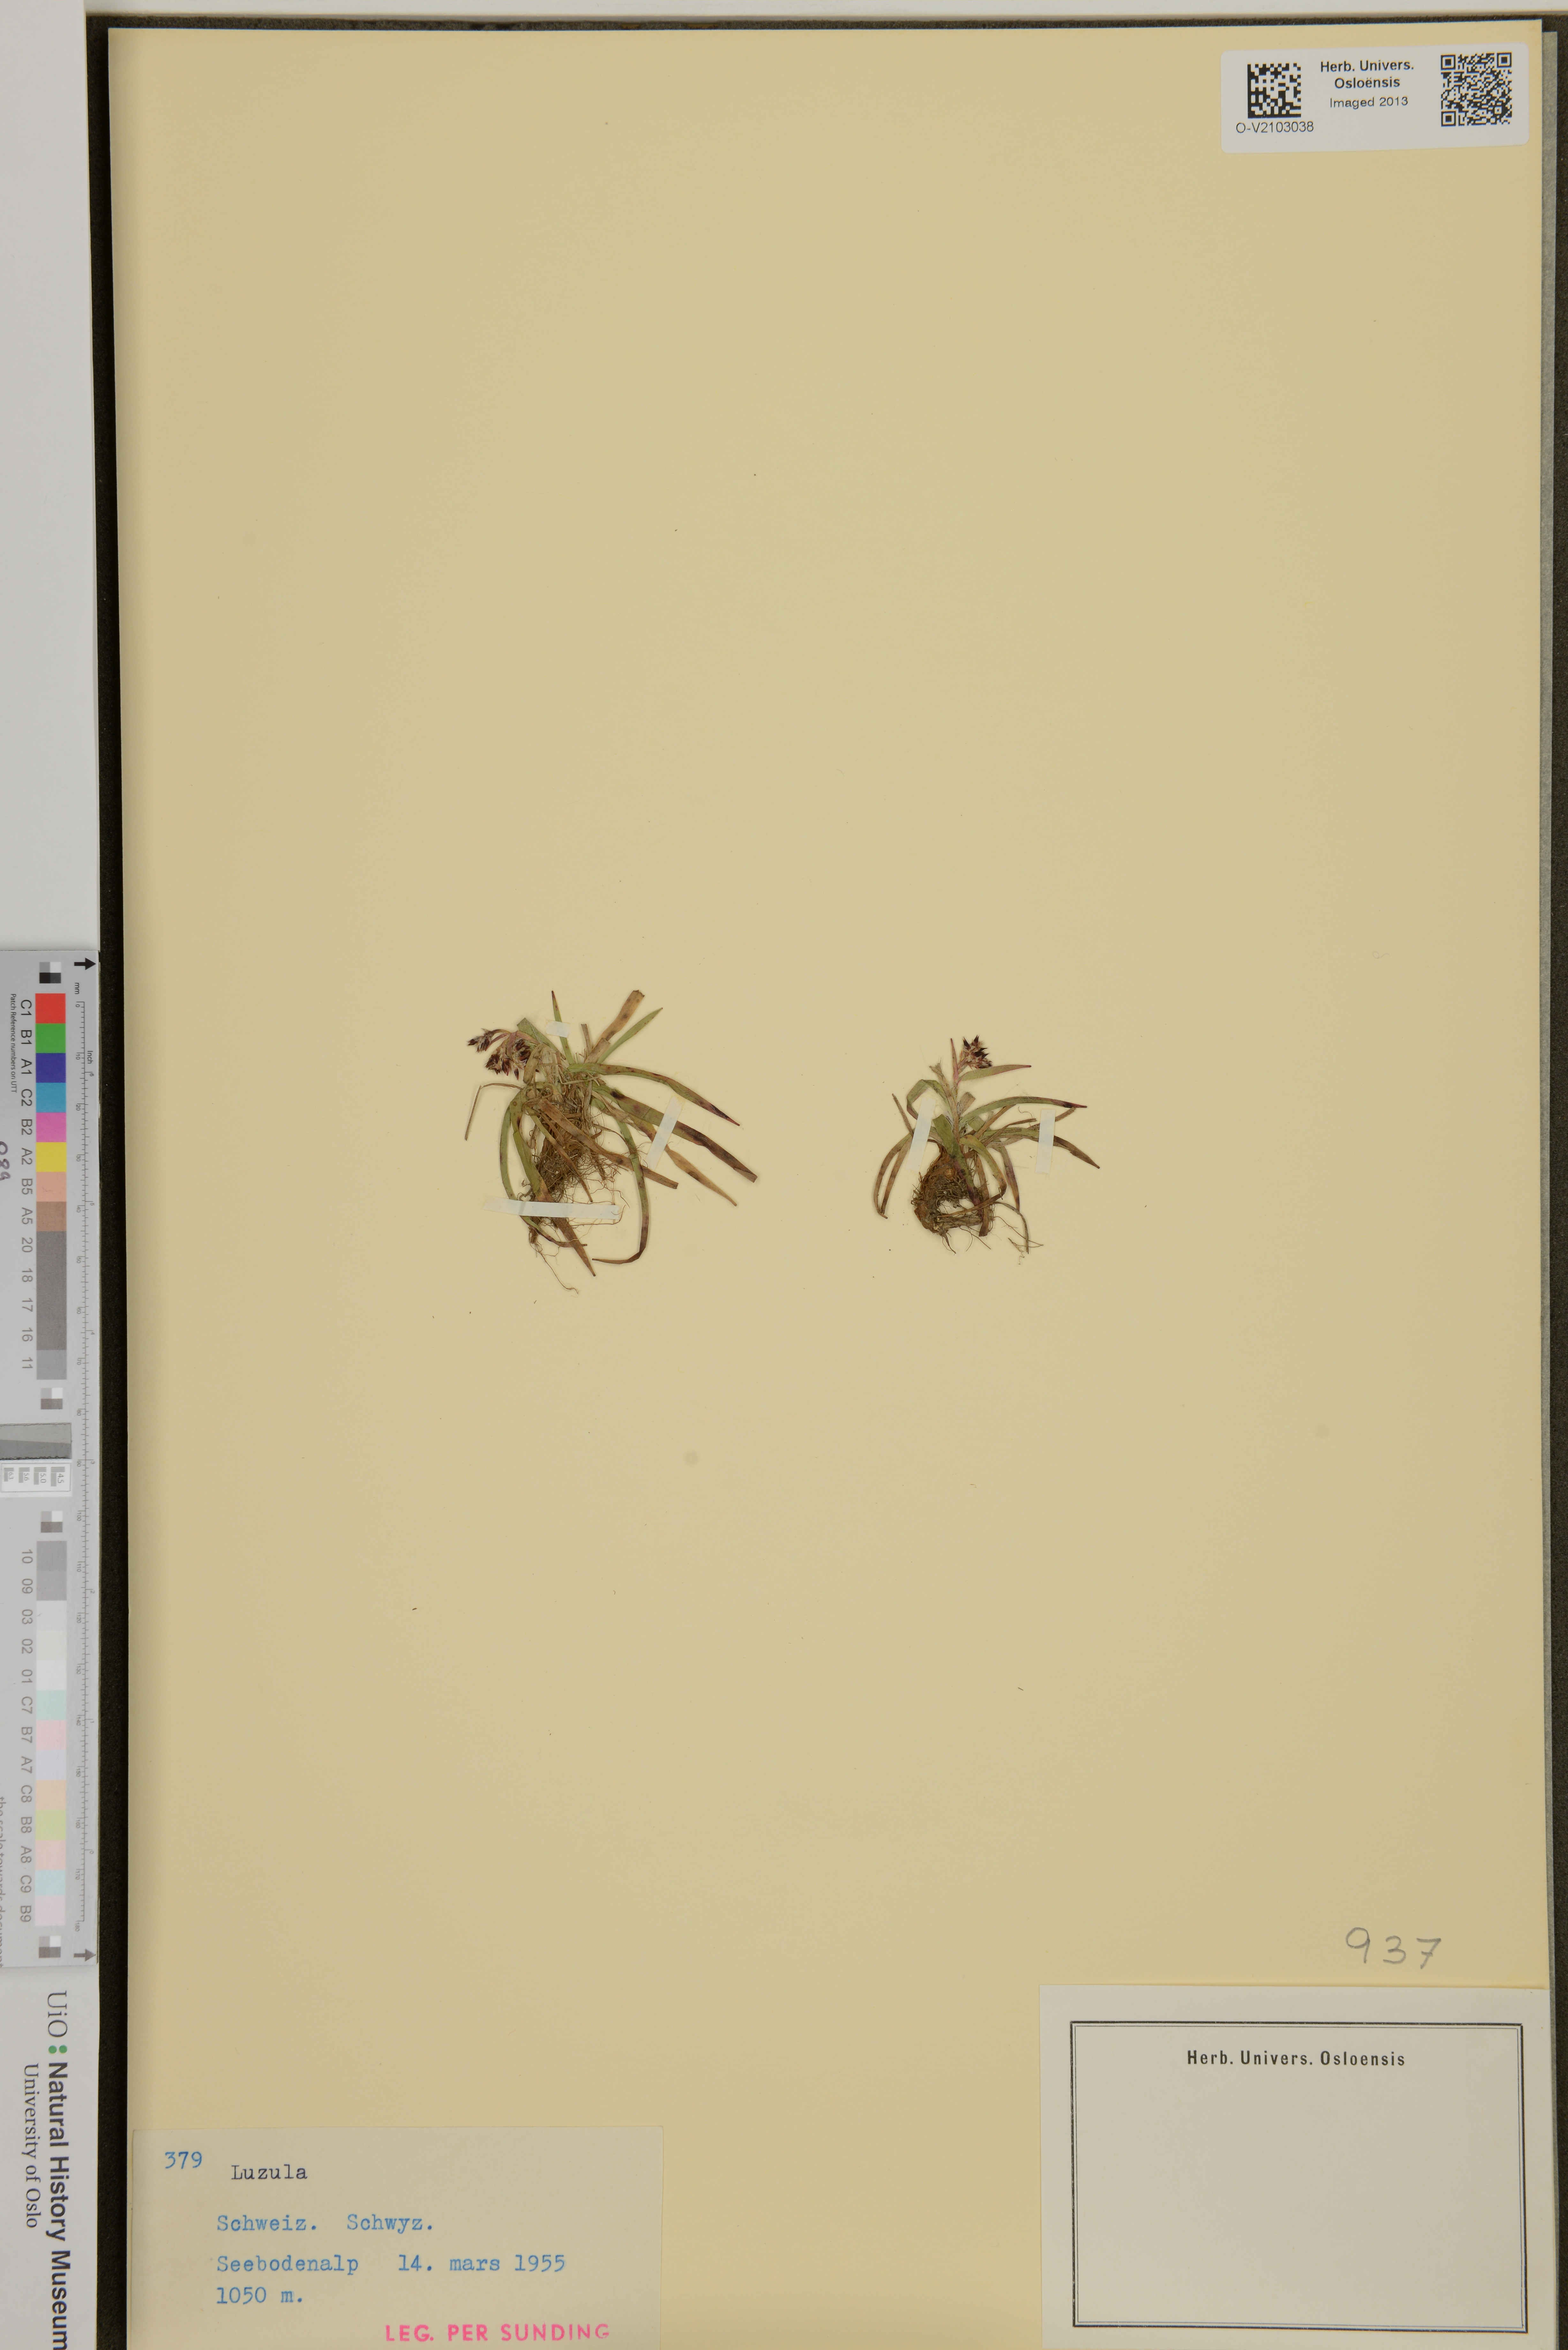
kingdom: Plantae
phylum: Tracheophyta
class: Liliopsida
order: Poales
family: Juncaceae
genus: Luzula
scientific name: Luzula
